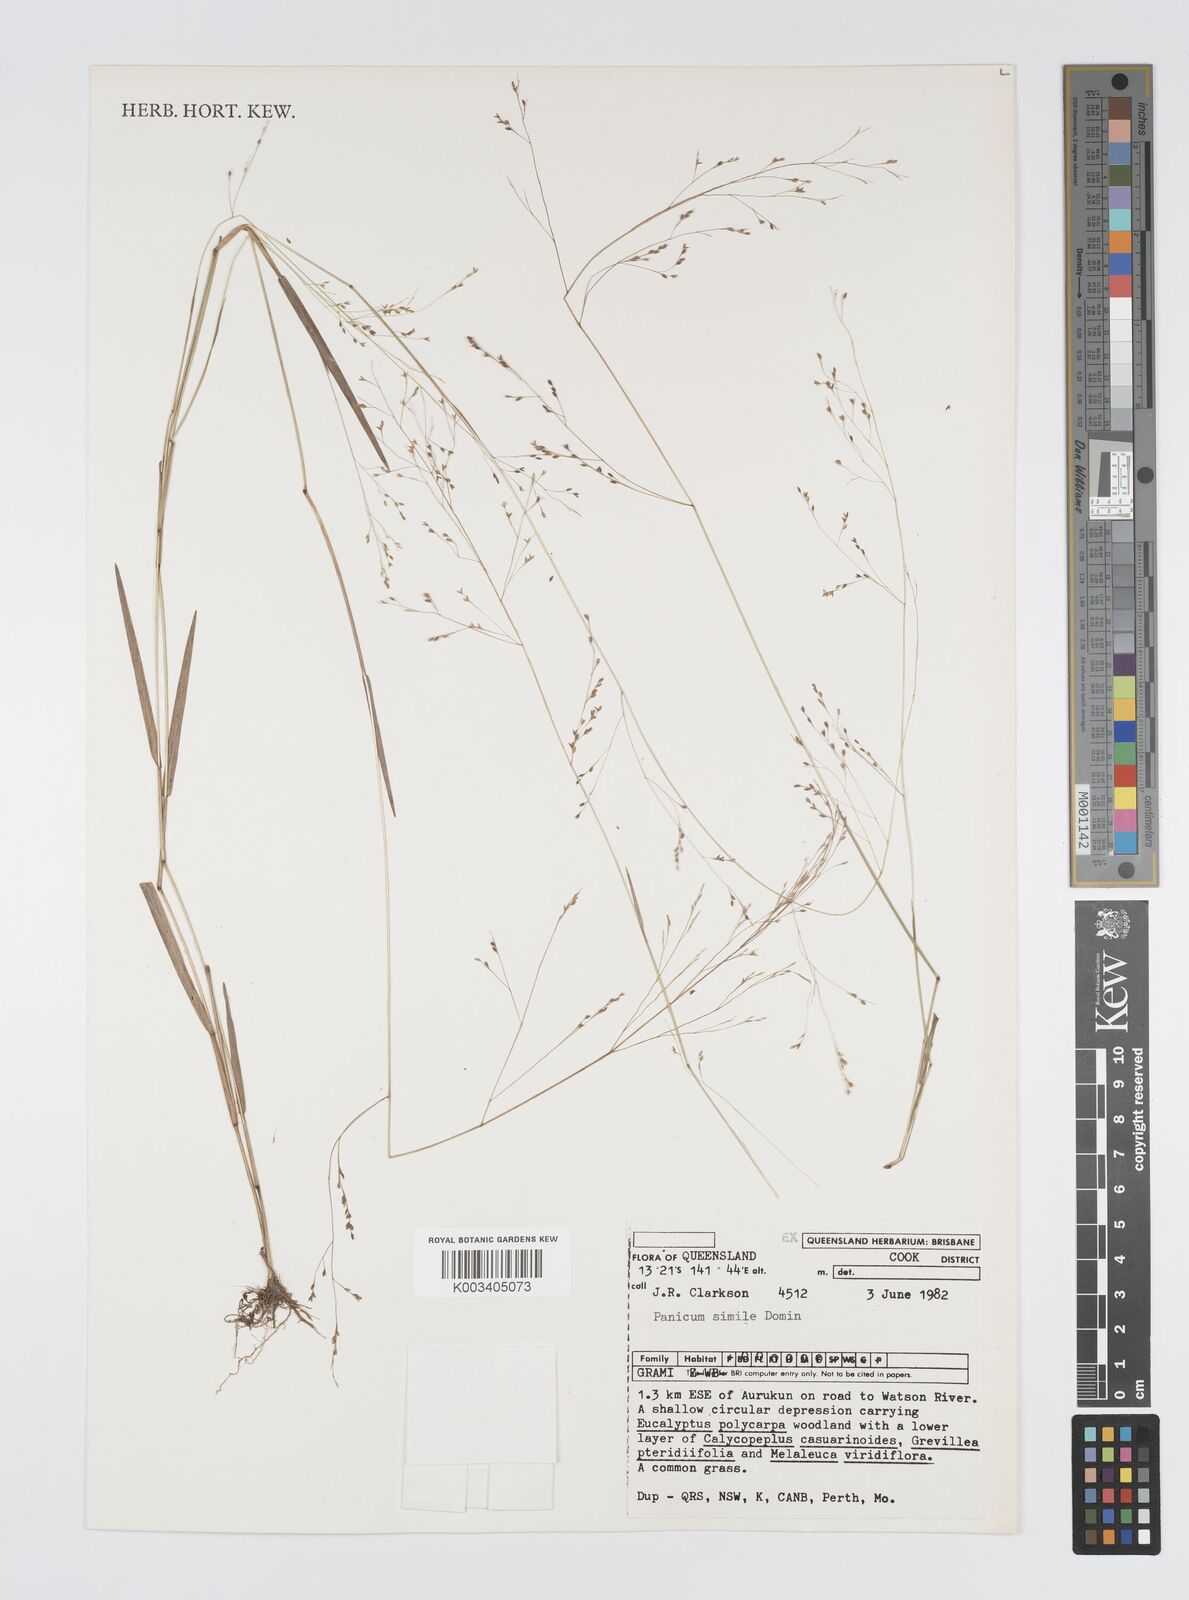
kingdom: Plantae
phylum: Tracheophyta
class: Liliopsida
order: Poales
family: Poaceae
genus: Panicum
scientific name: Panicum simile
